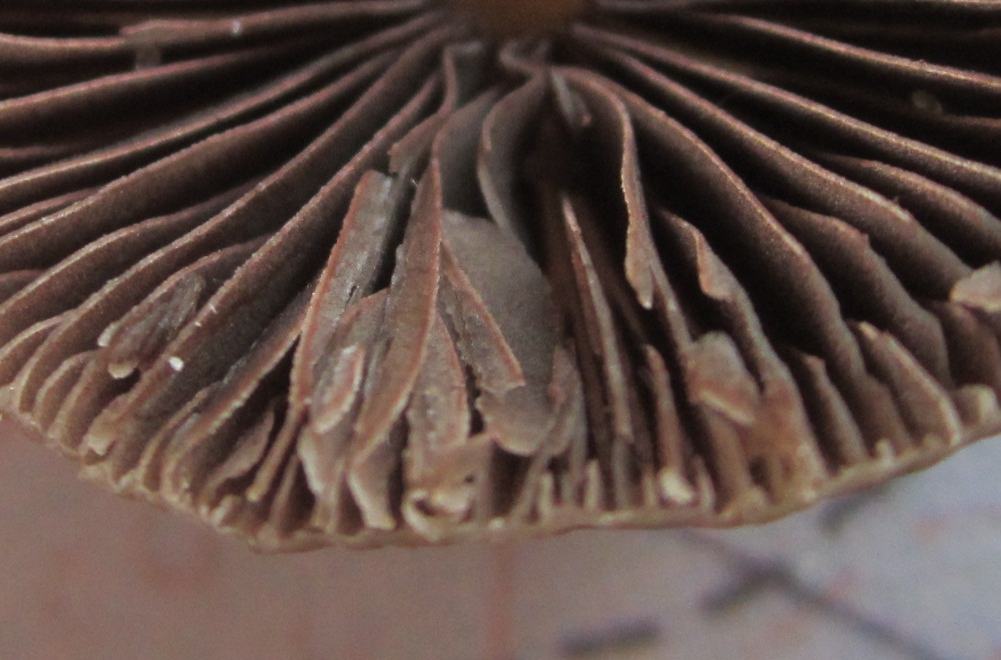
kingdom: Fungi
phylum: Basidiomycota
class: Agaricomycetes
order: Agaricales
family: Psathyrellaceae
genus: Psathyrella
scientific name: Psathyrella pseudogracilis
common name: slank mørkhat
